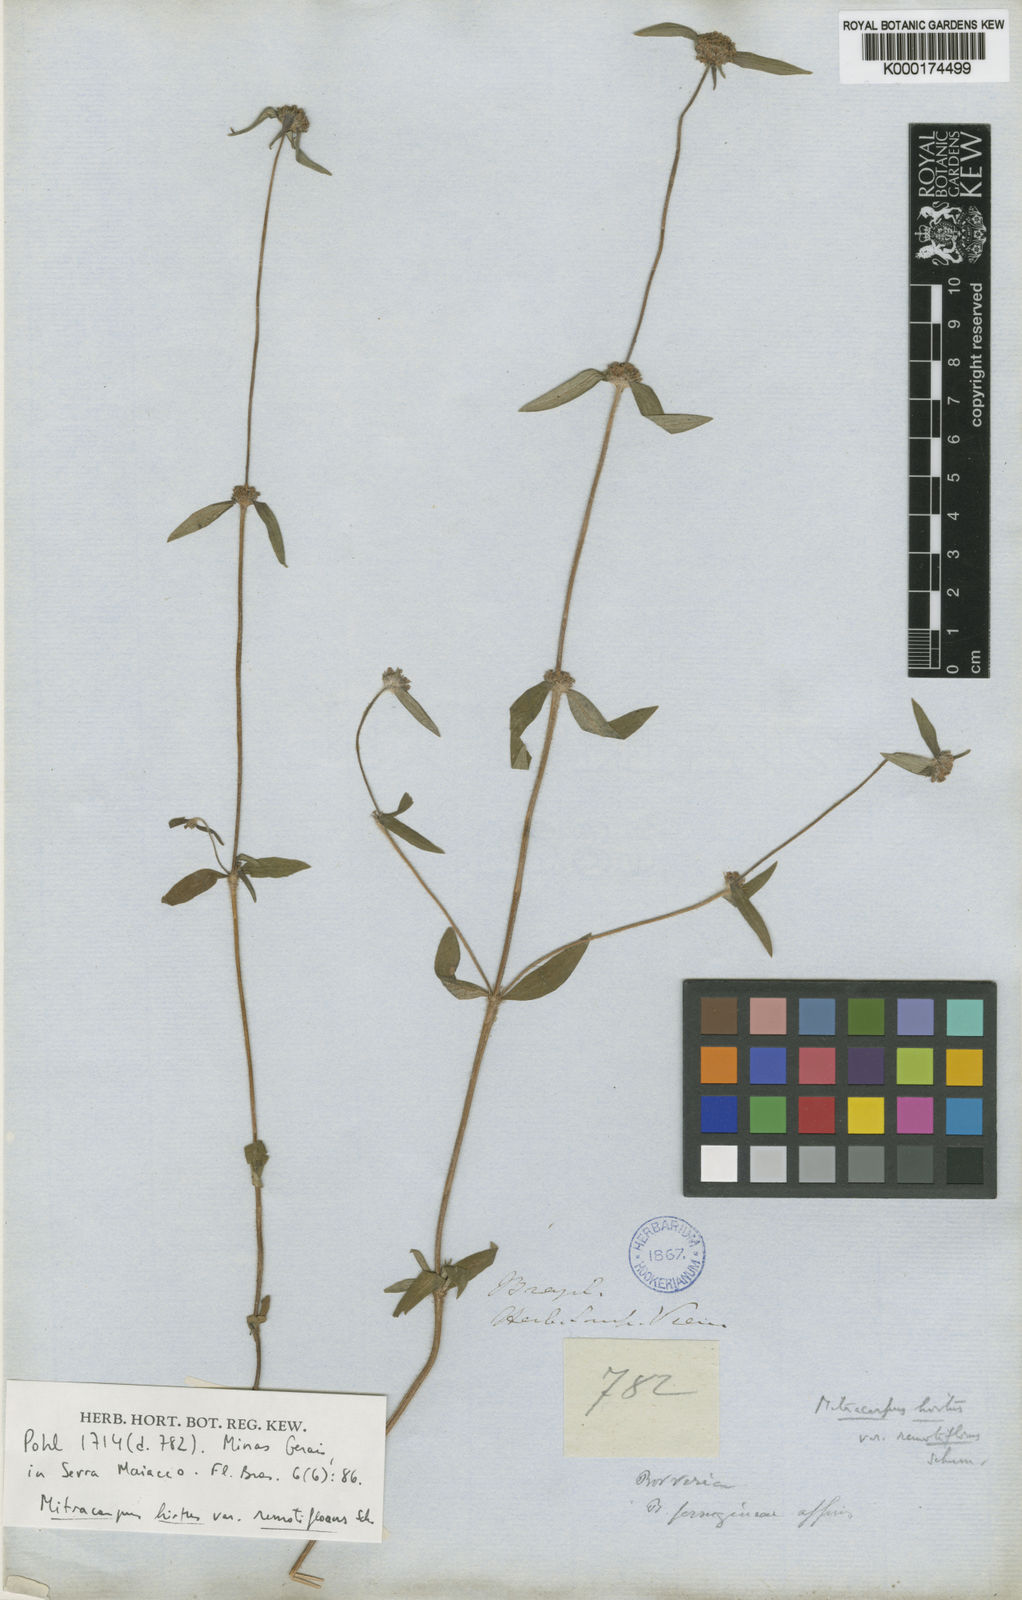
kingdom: Plantae
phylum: Tracheophyta
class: Magnoliopsida
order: Gentianales
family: Rubiaceae
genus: Mitracarpus
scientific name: Mitracarpus hirtus
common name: Tropical girdlepod
